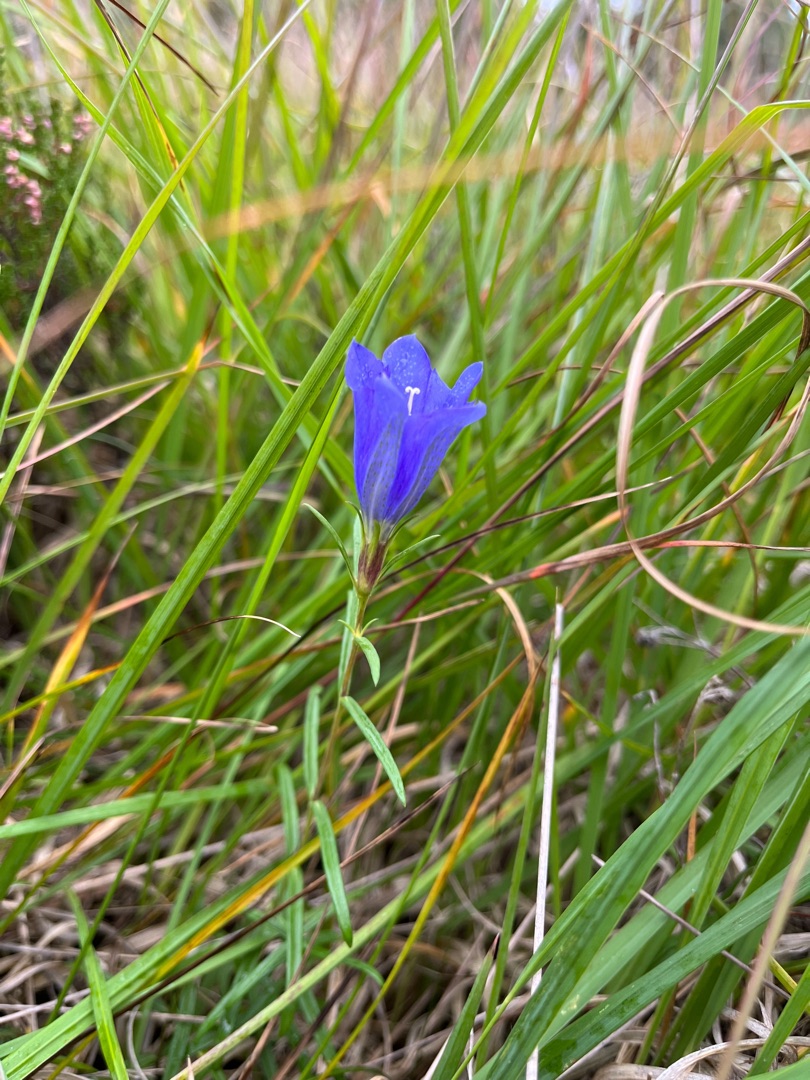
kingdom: Plantae
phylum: Tracheophyta
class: Magnoliopsida
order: Gentianales
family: Gentianaceae
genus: Gentiana
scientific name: Gentiana pneumonanthe
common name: Klokke-ensian
